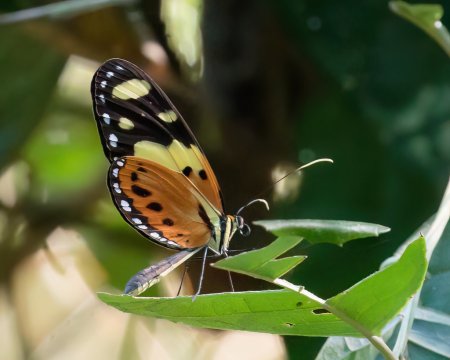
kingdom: Animalia
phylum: Arthropoda
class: Insecta
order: Lepidoptera
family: Nymphalidae
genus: Melinaea
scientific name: Melinaea ludovica
